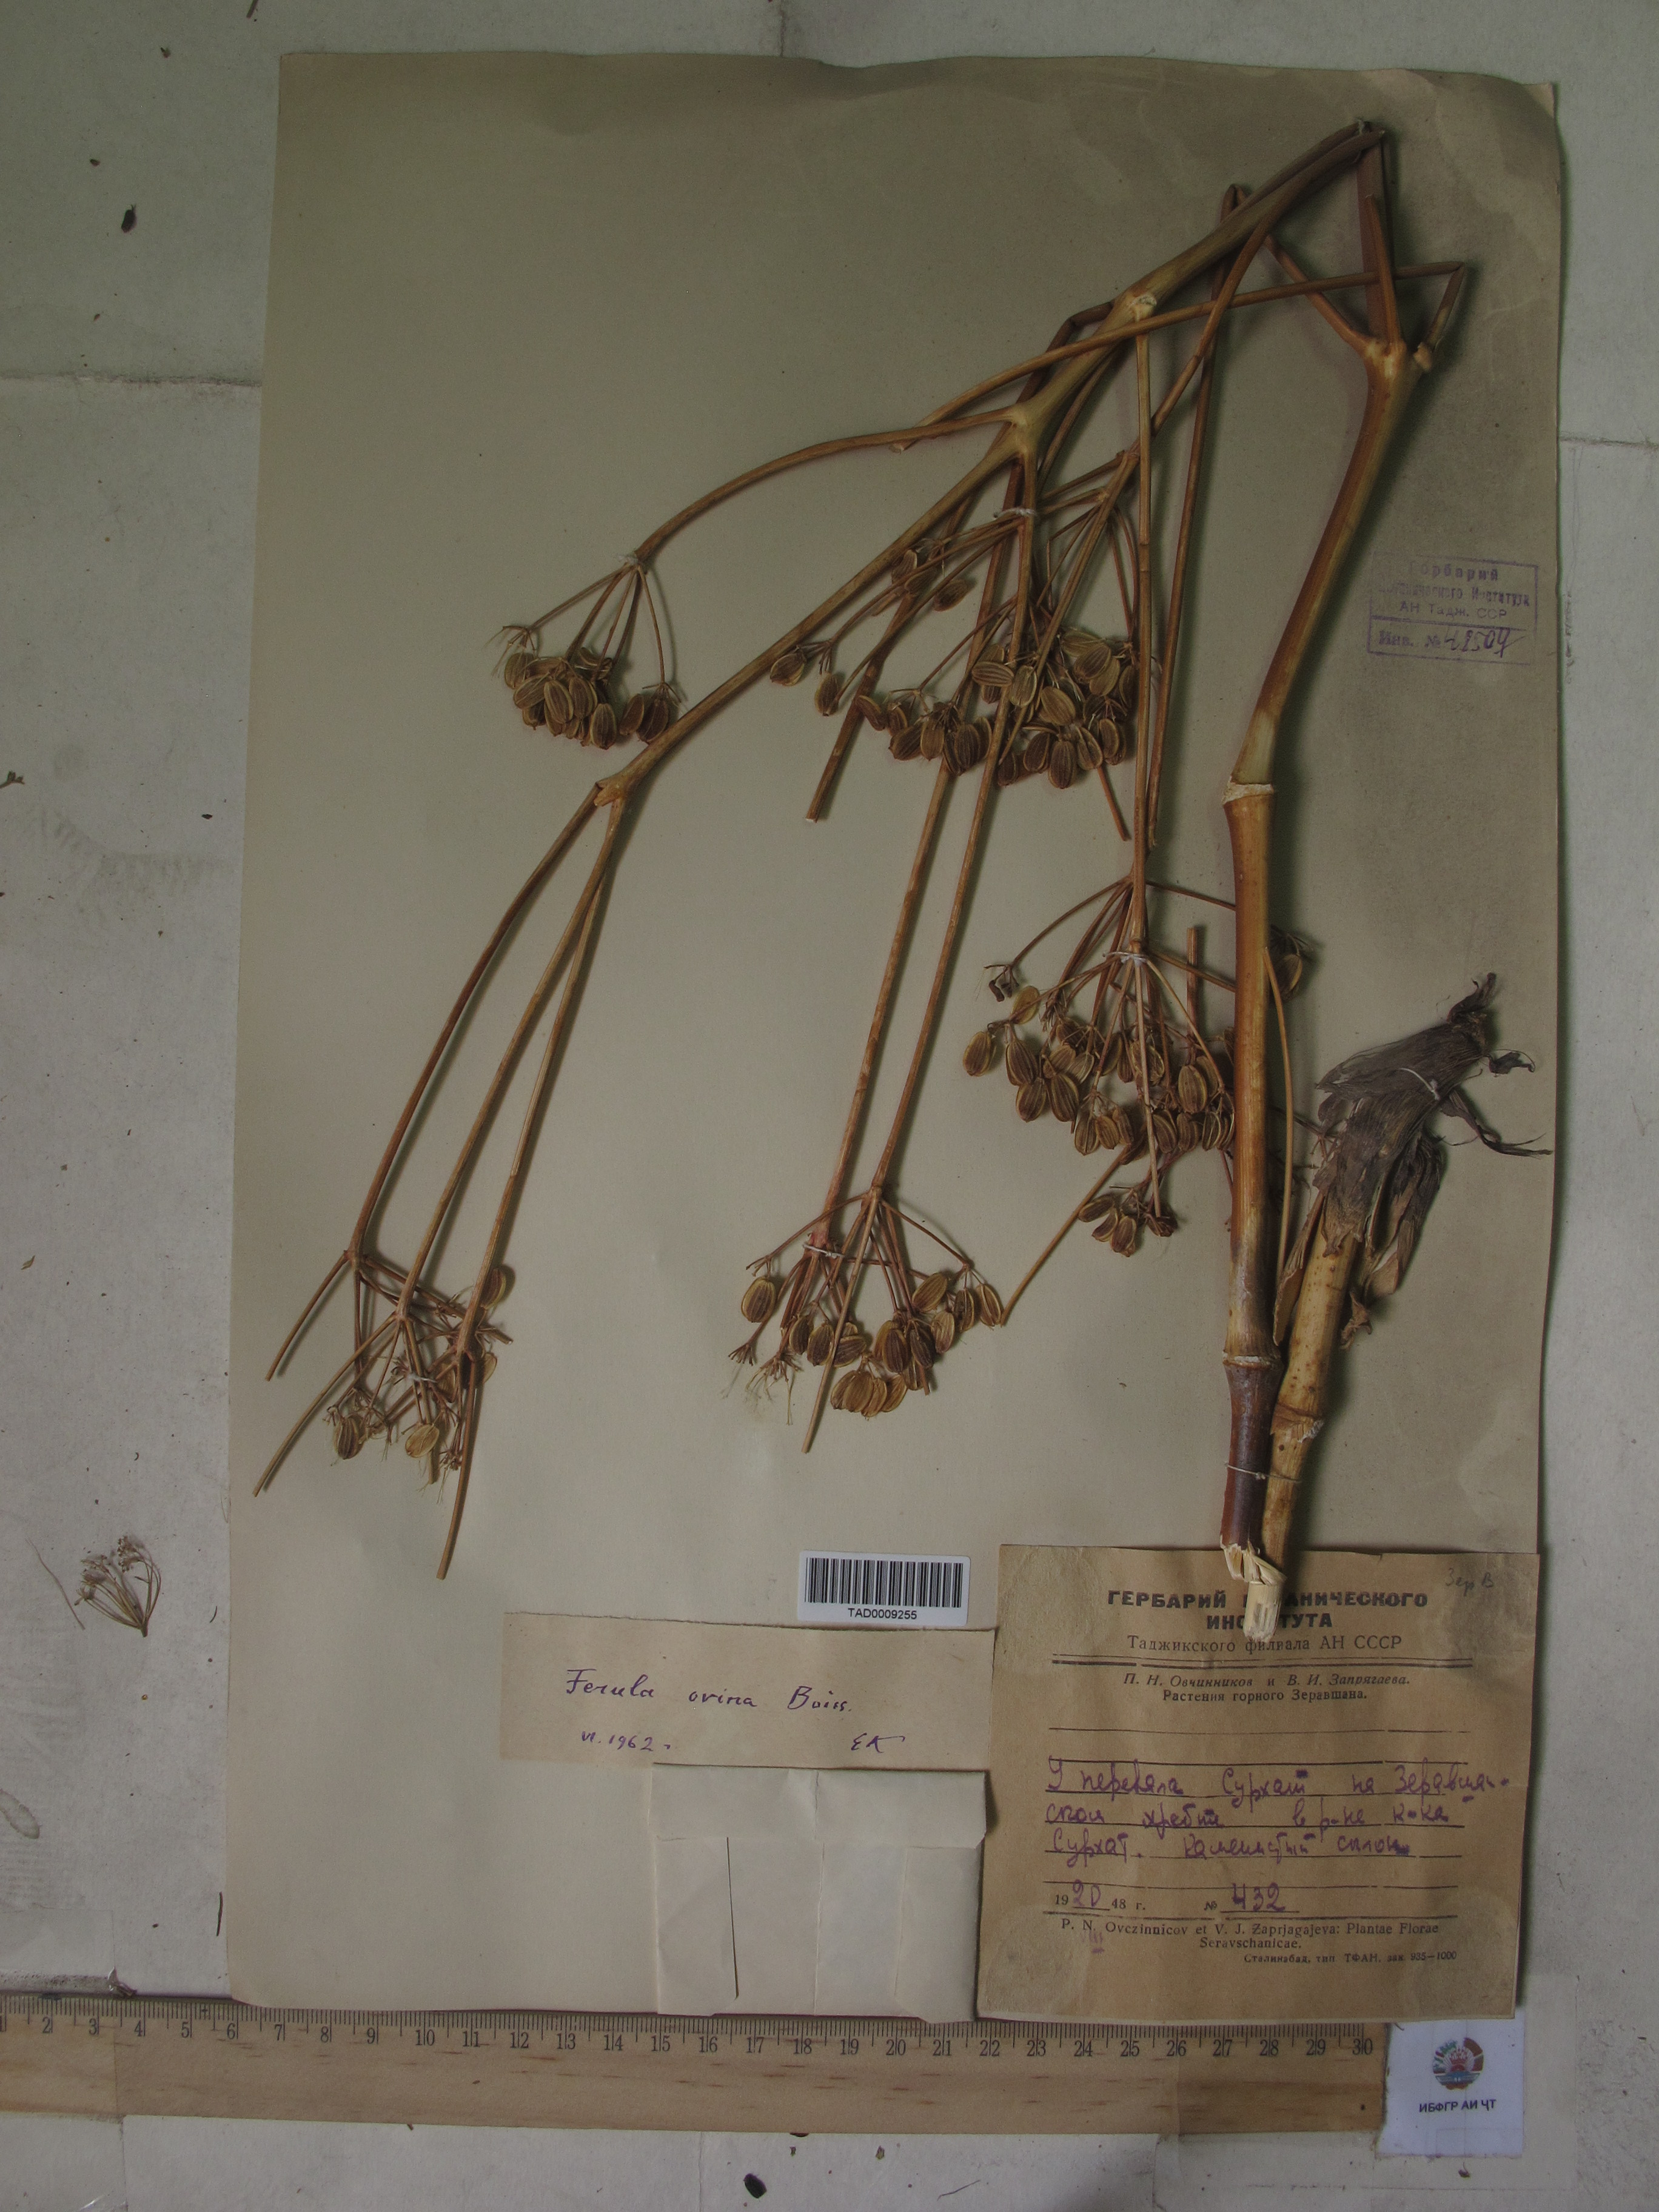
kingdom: Plantae
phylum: Tracheophyta
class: Magnoliopsida
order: Apiales
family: Apiaceae
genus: Ferula
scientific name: Ferula ovina
